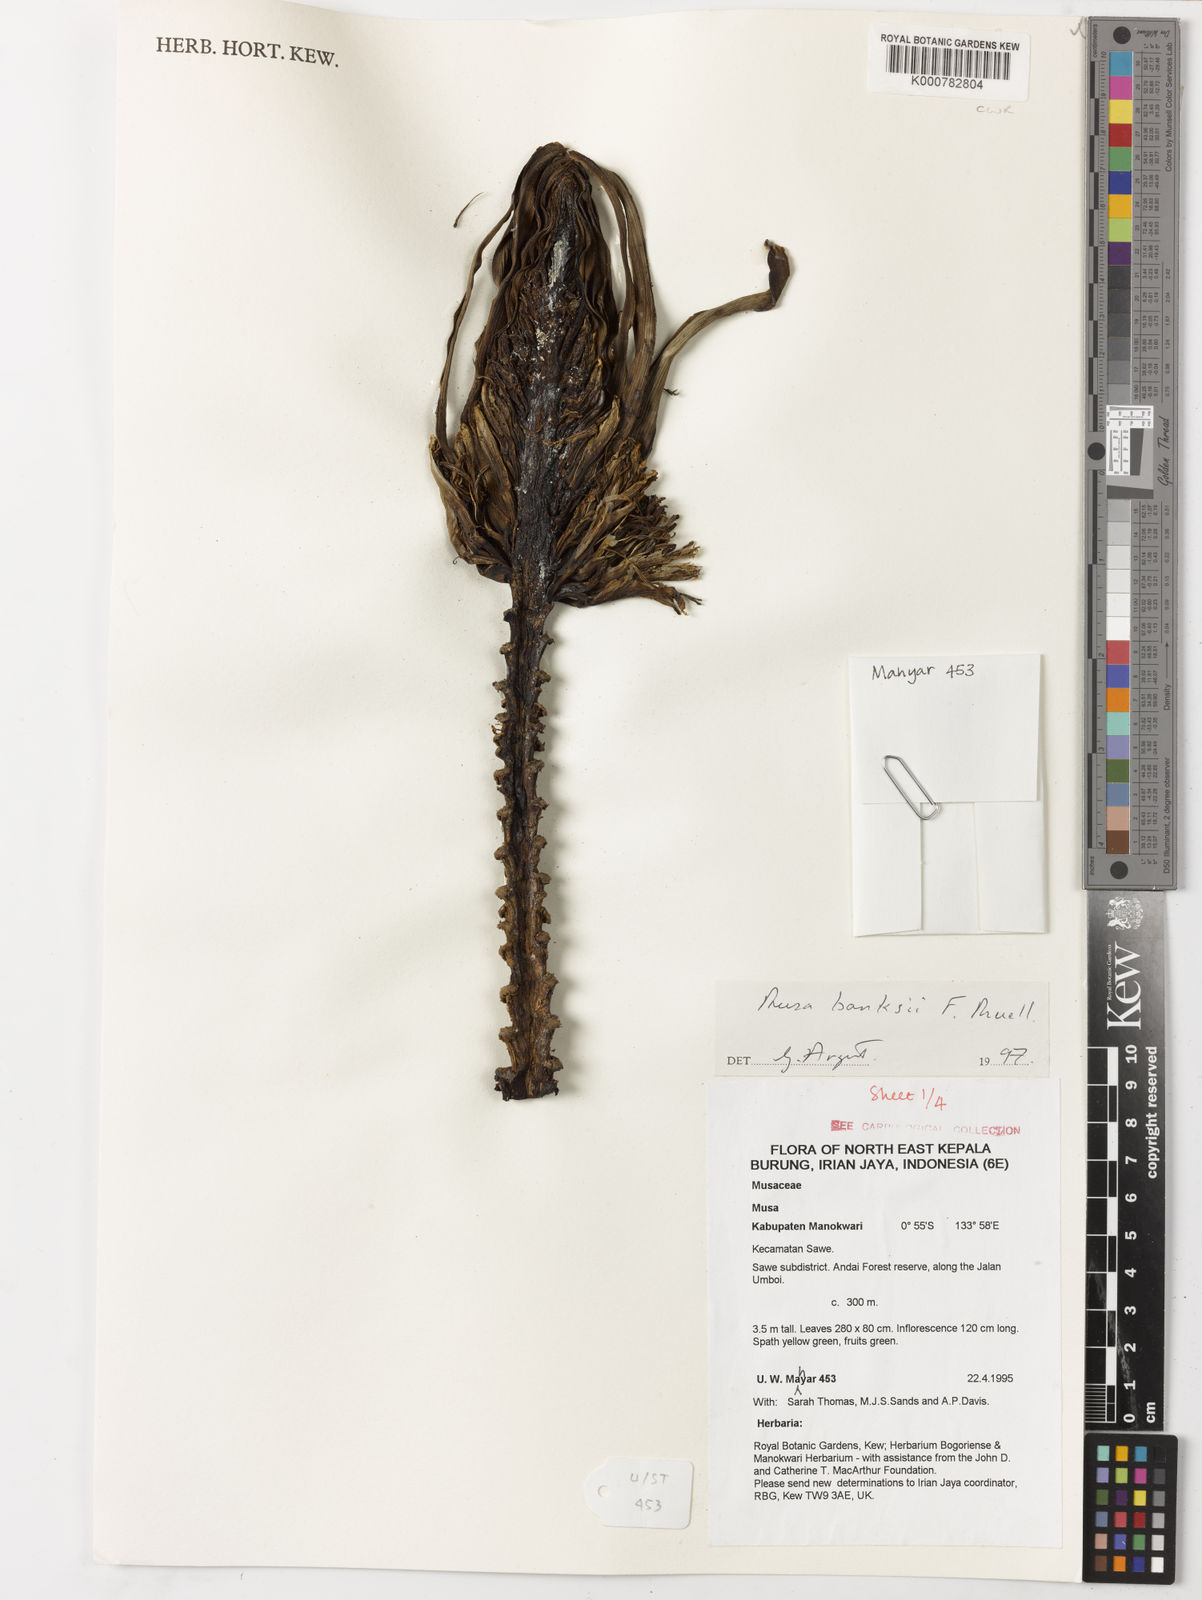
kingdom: Plantae
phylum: Tracheophyta
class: Liliopsida
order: Zingiberales
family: Musaceae
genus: Musa
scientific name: Musa banksii
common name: Maroon-stemmed banana
